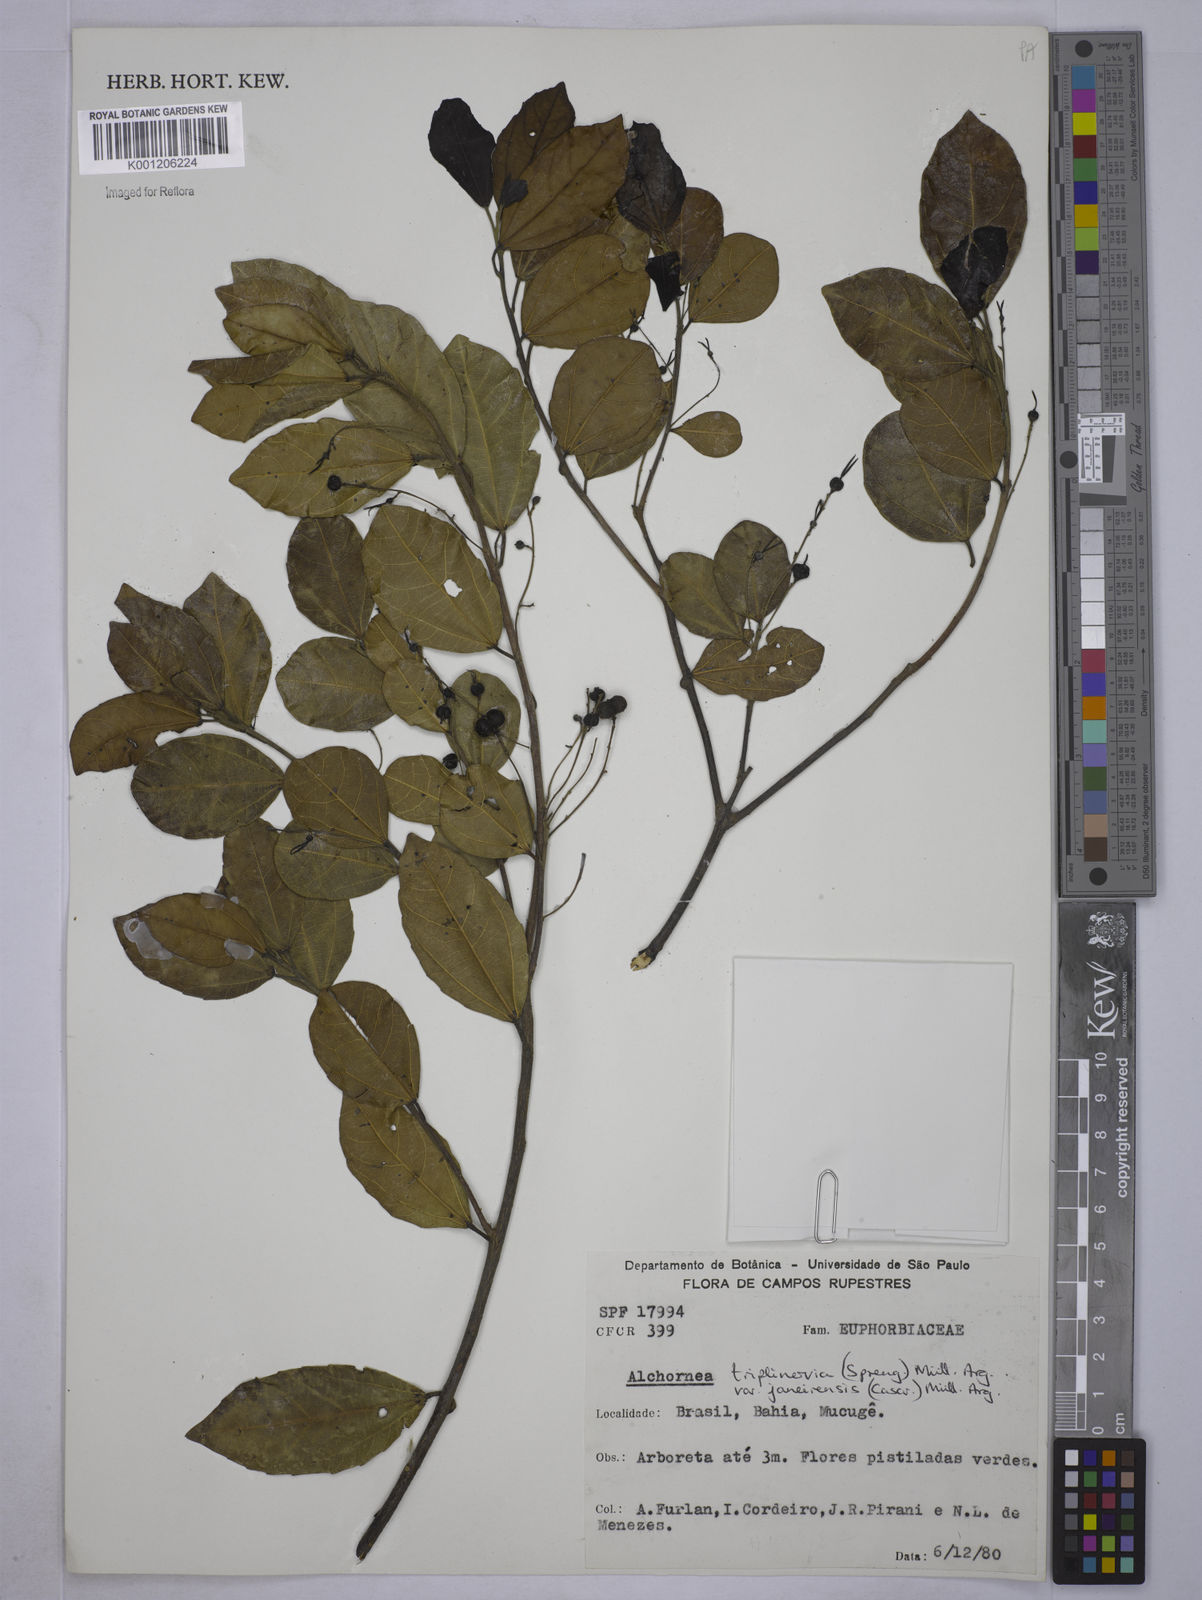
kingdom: Plantae
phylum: Tracheophyta
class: Magnoliopsida
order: Malpighiales
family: Euphorbiaceae
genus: Alchornea
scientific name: Alchornea
